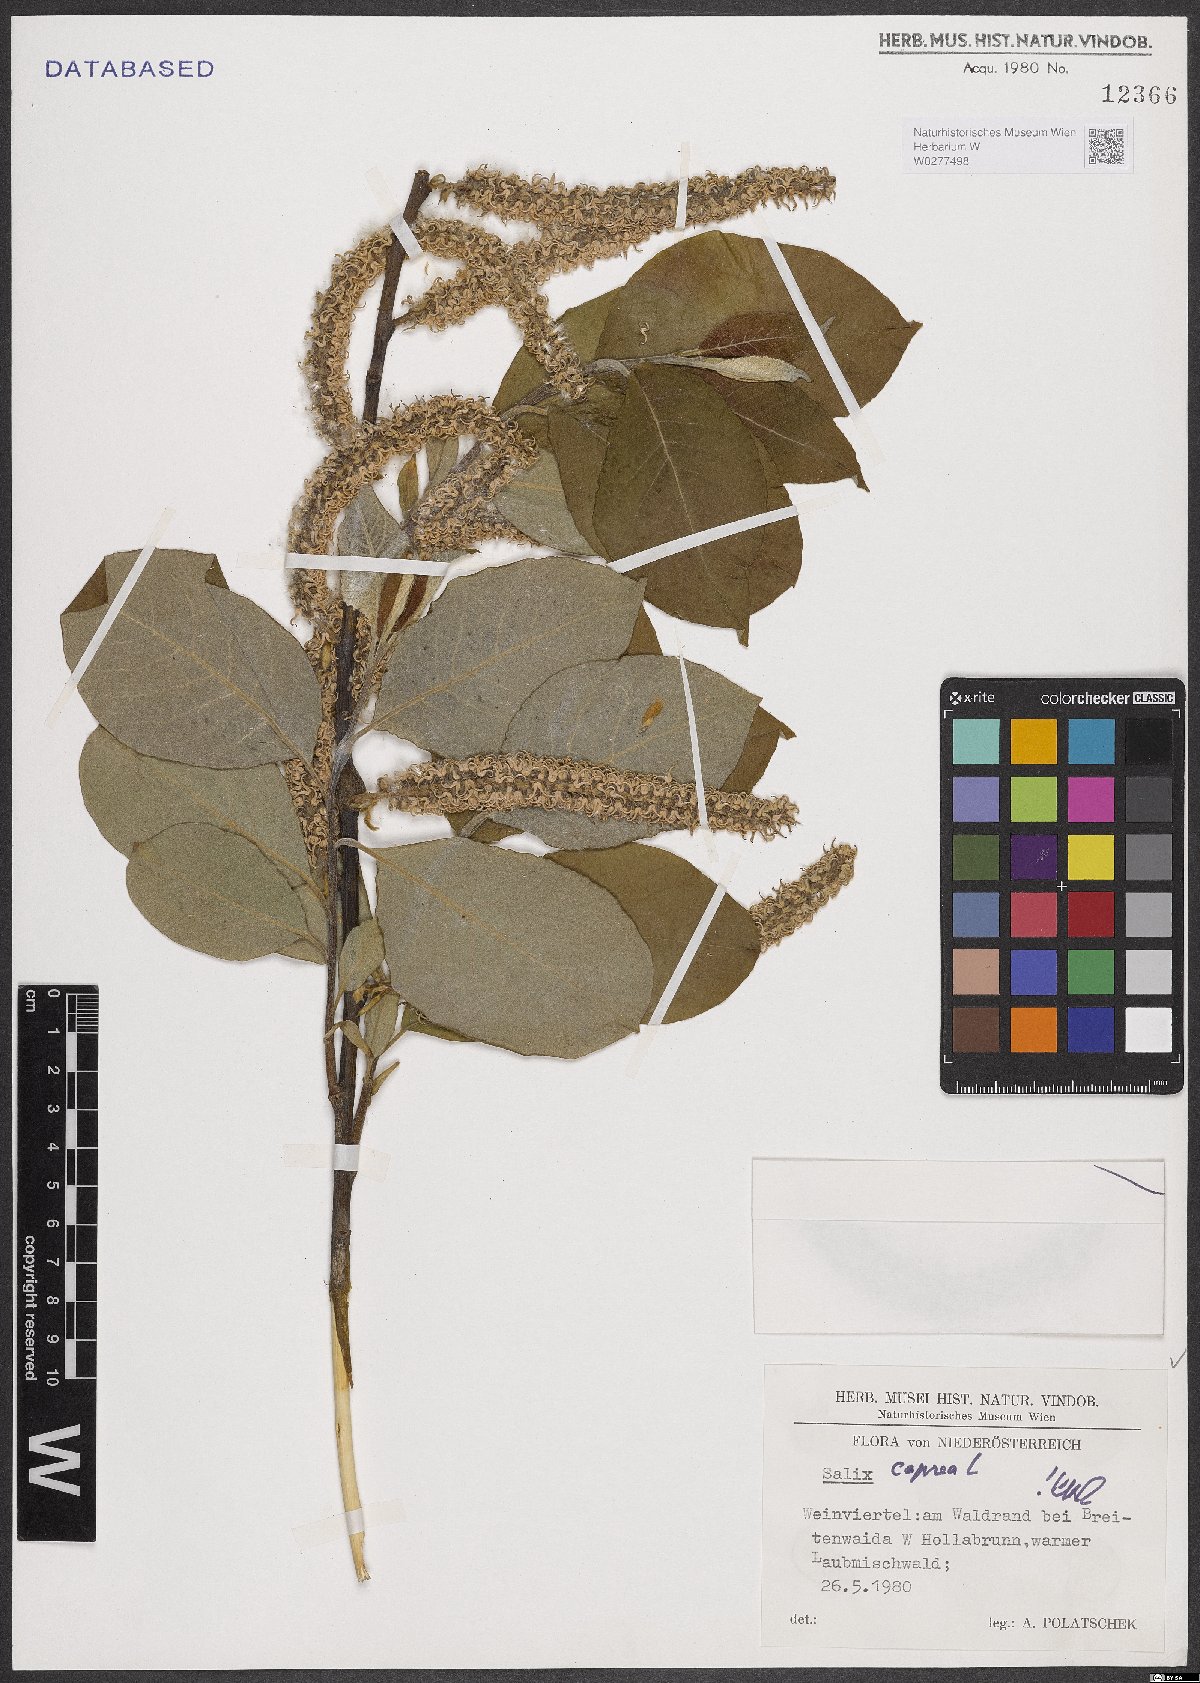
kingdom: Plantae
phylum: Tracheophyta
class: Magnoliopsida
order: Malpighiales
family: Salicaceae
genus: Salix
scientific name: Salix caprea
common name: Goat willow
